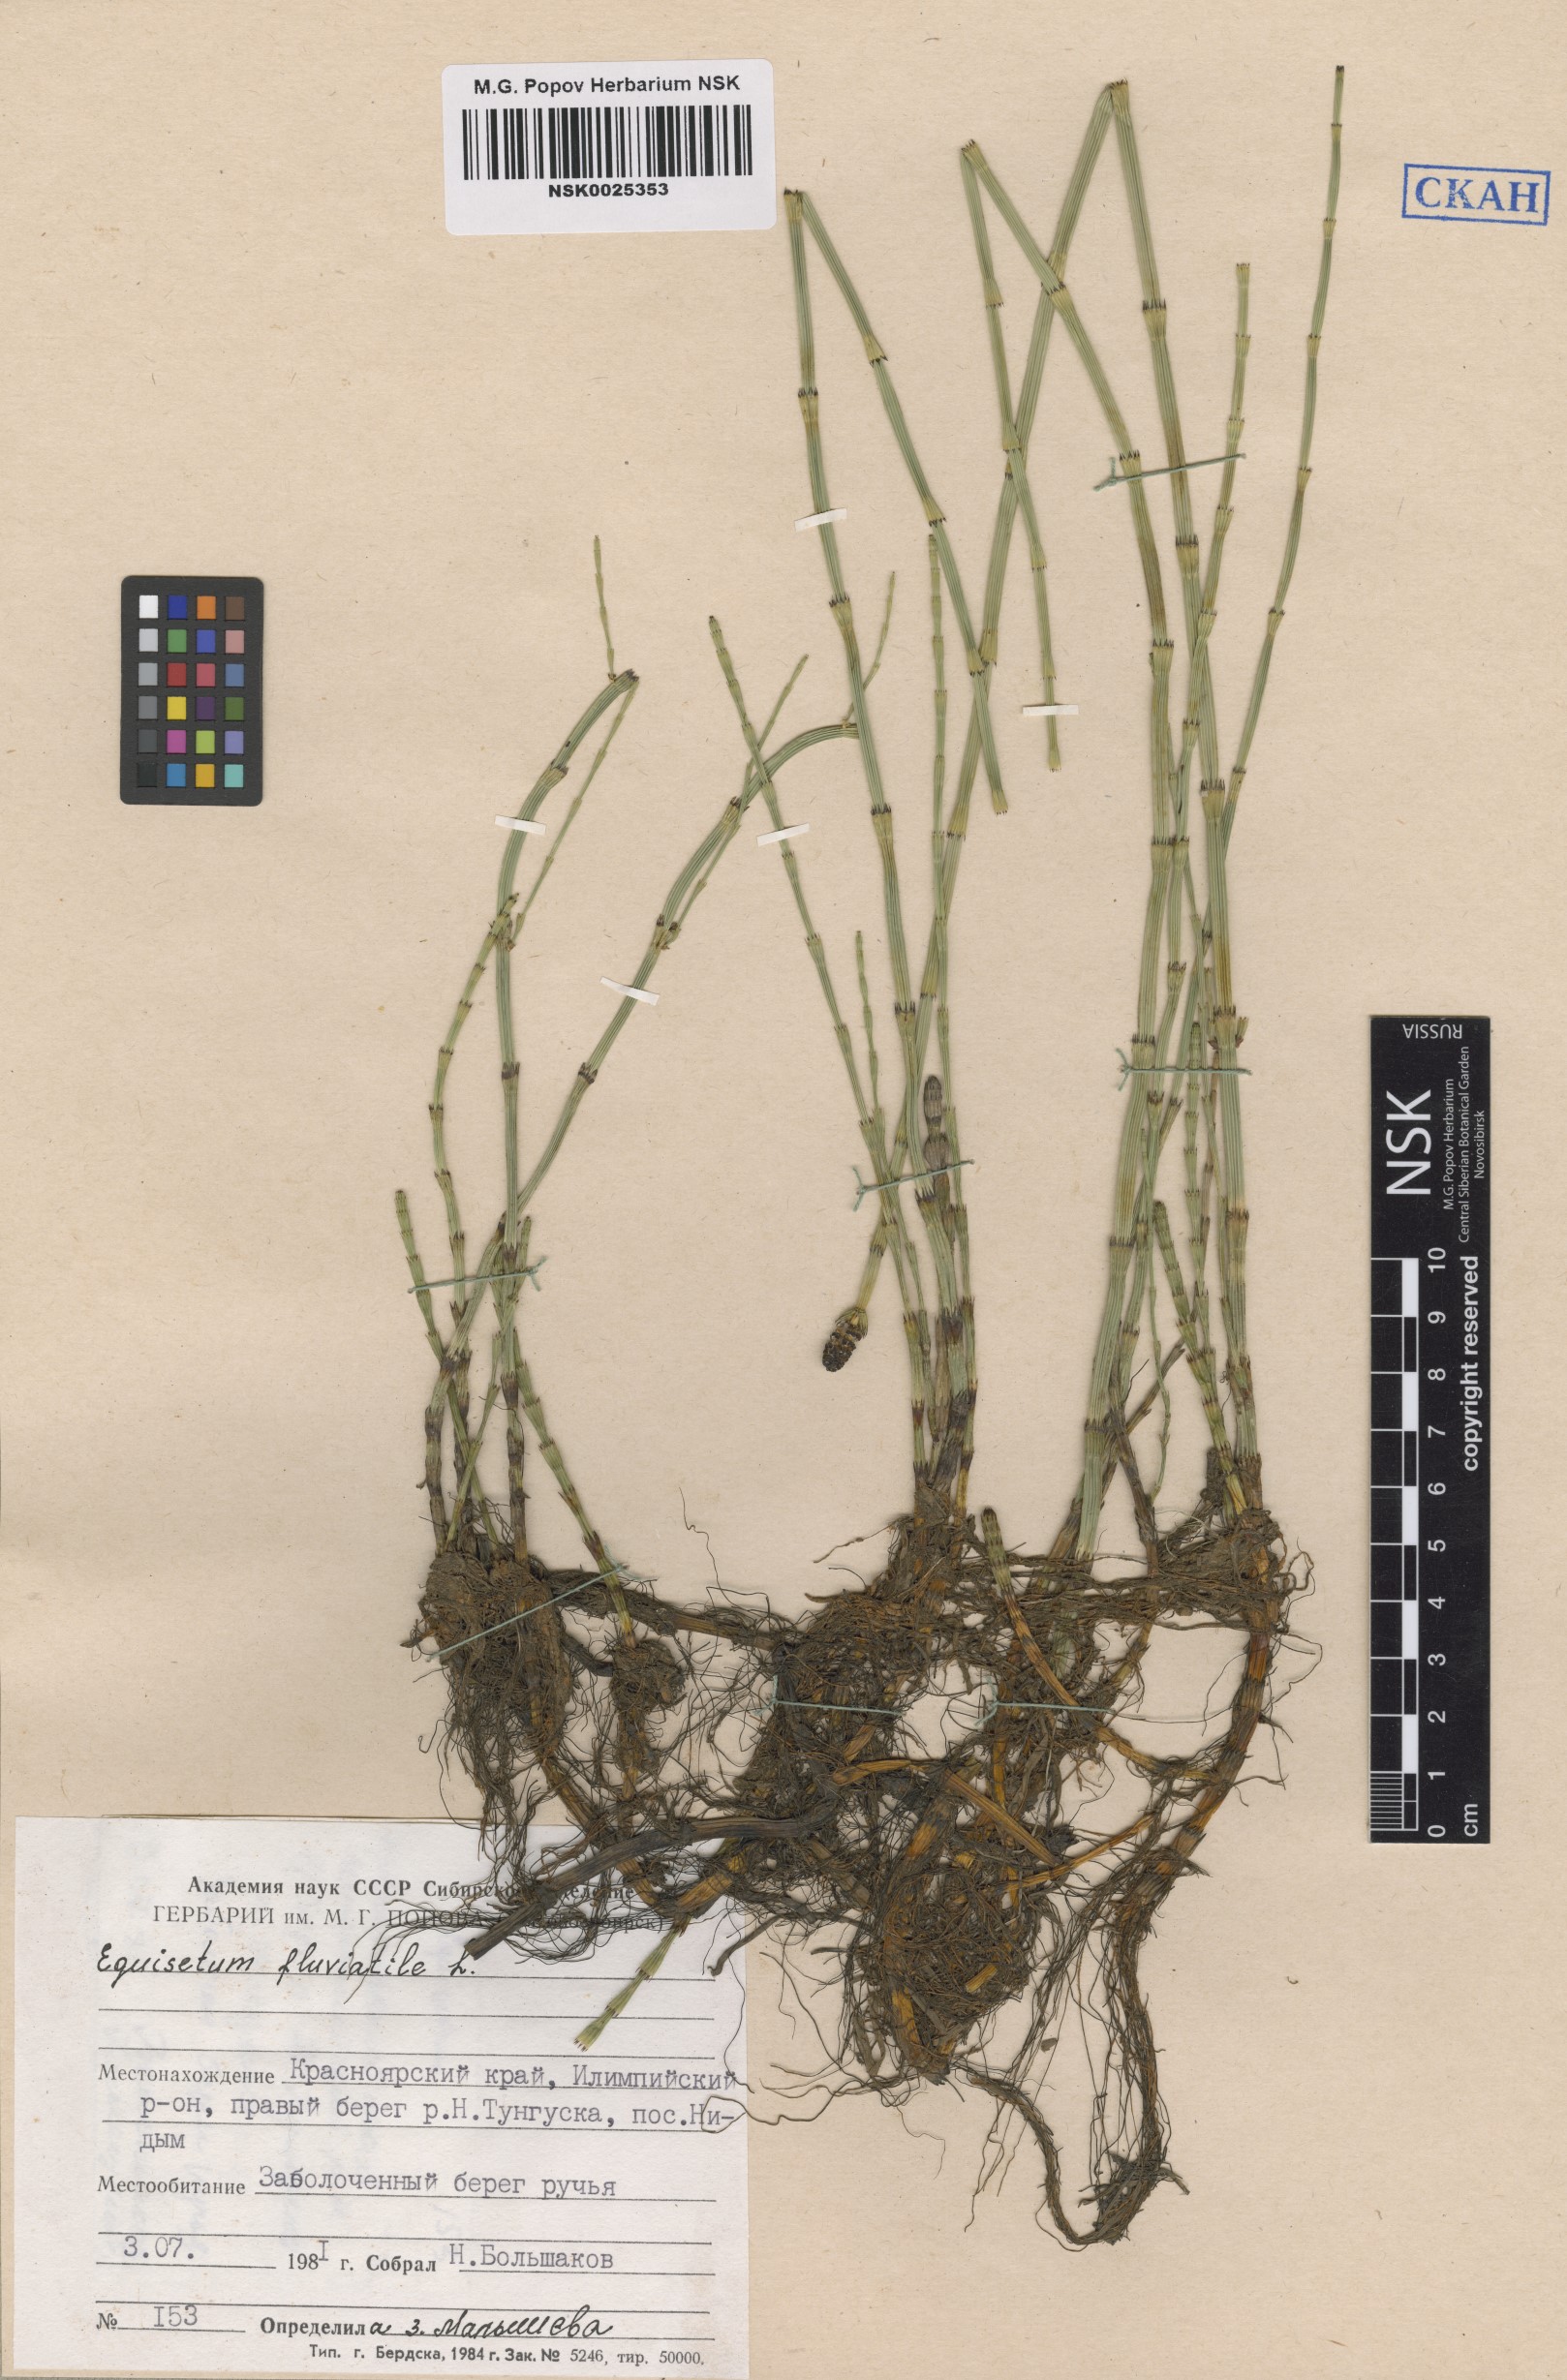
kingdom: Plantae
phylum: Tracheophyta
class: Polypodiopsida
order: Equisetales
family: Equisetaceae
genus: Equisetum
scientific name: Equisetum fluviatile
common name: Water horsetail
